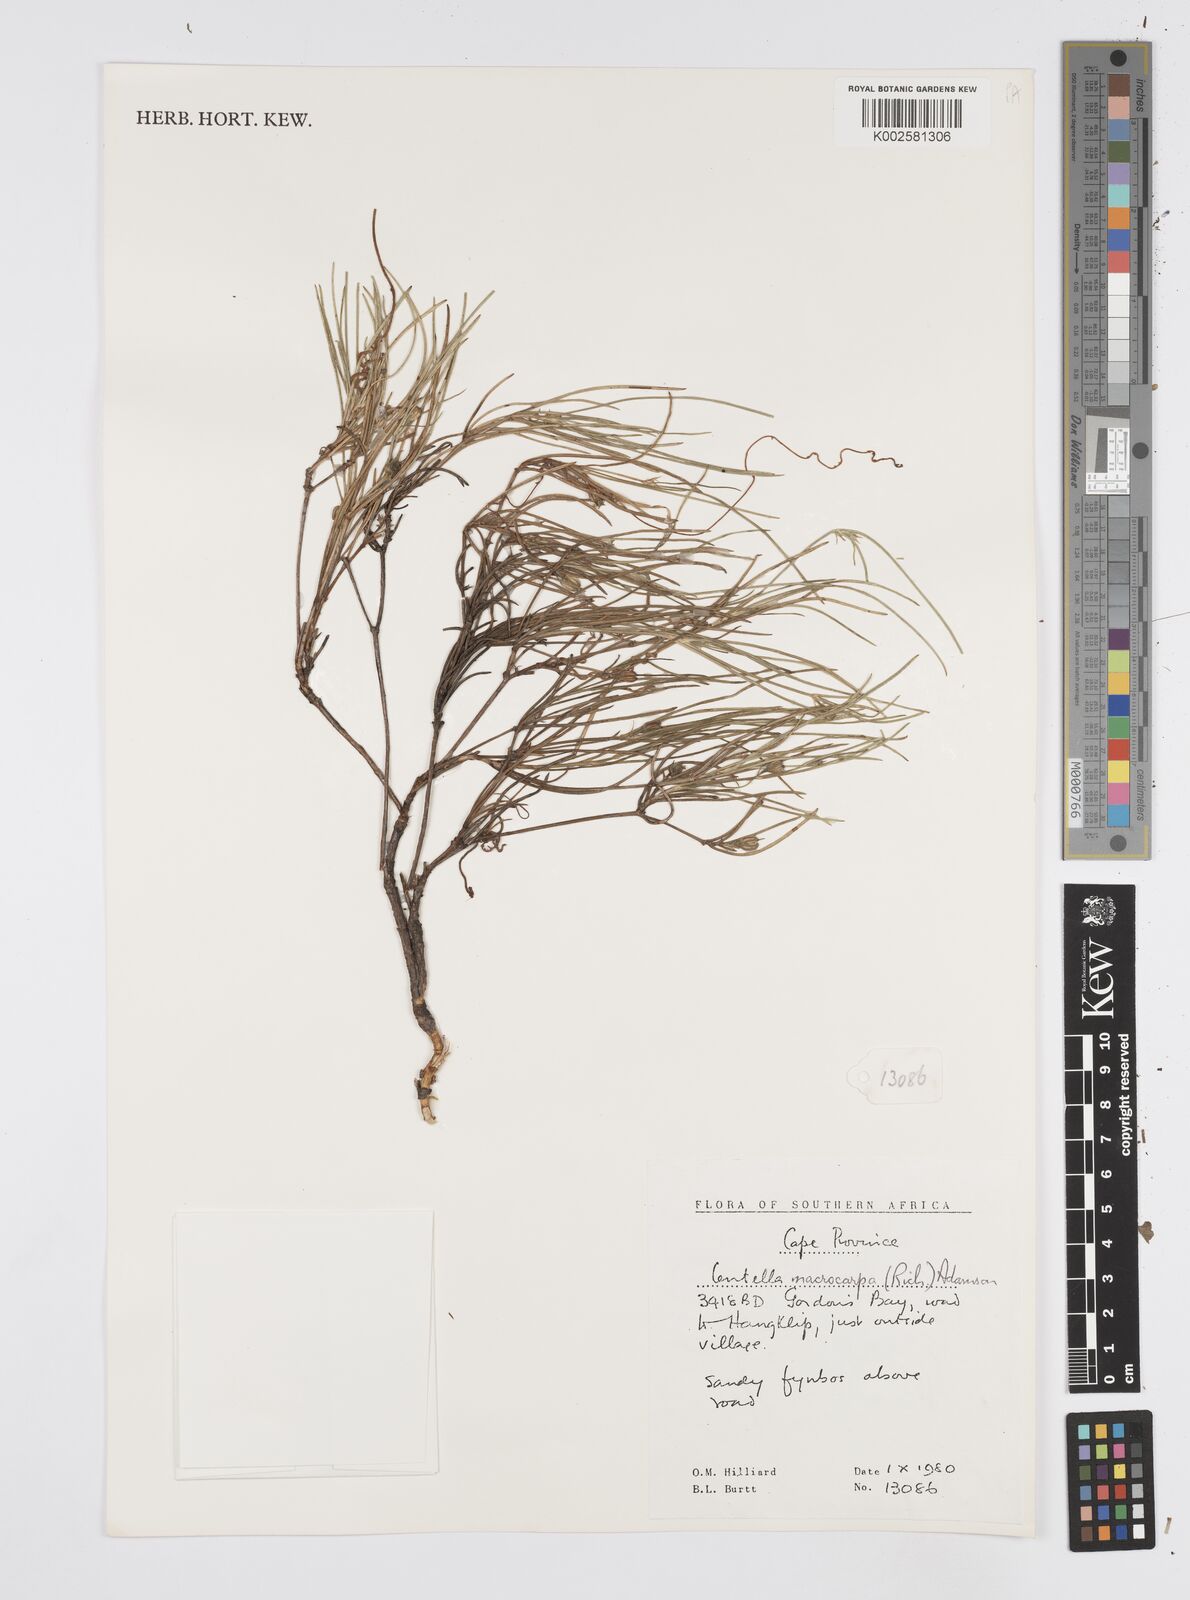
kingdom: Plantae
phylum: Tracheophyta
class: Magnoliopsida
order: Apiales
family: Apiaceae
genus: Centella
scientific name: Centella macrocarpa
